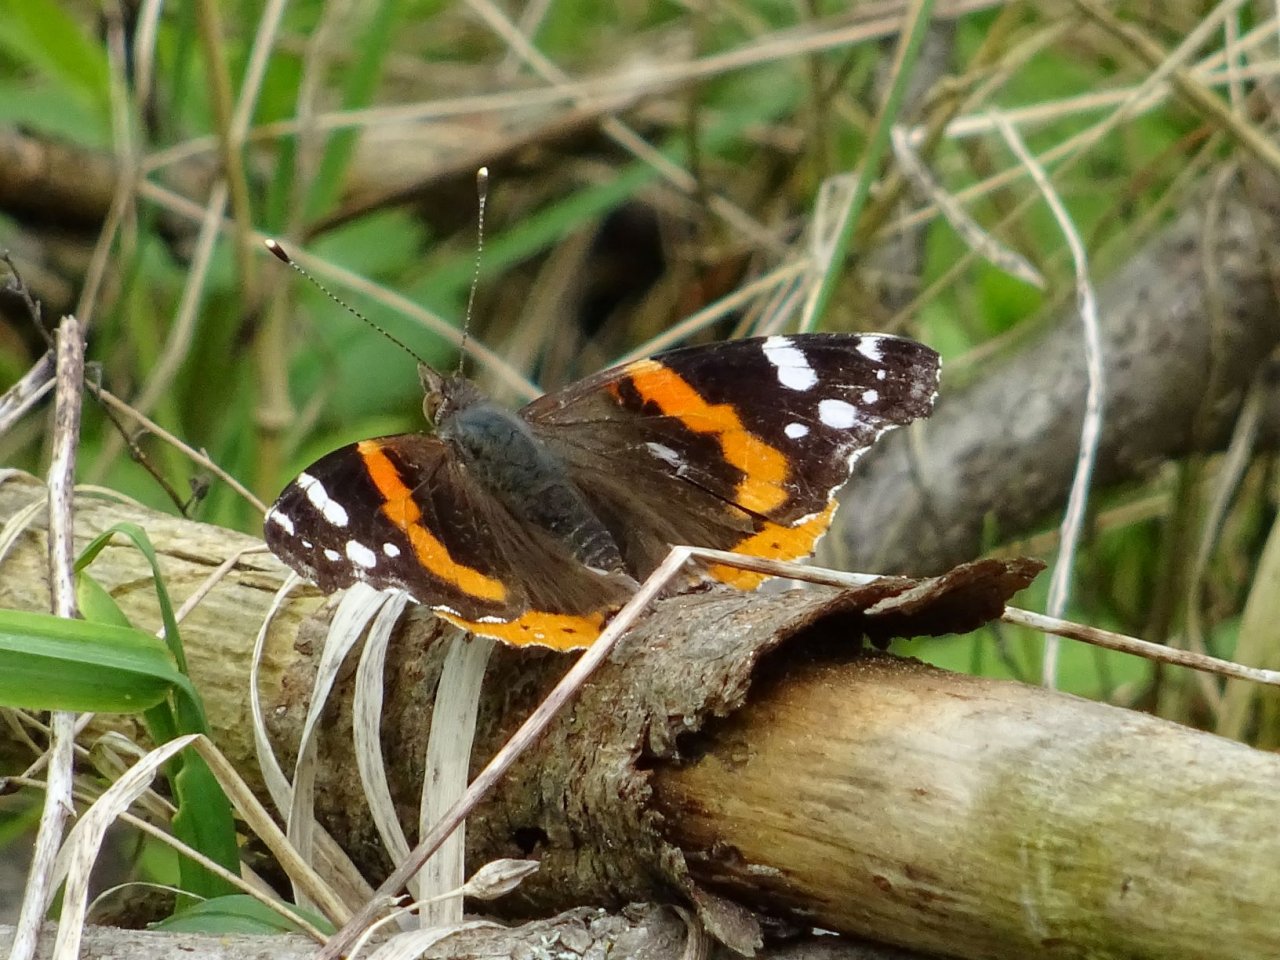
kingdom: Animalia
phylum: Arthropoda
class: Insecta
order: Lepidoptera
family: Nymphalidae
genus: Vanessa
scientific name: Vanessa atalanta
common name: Red Admiral
